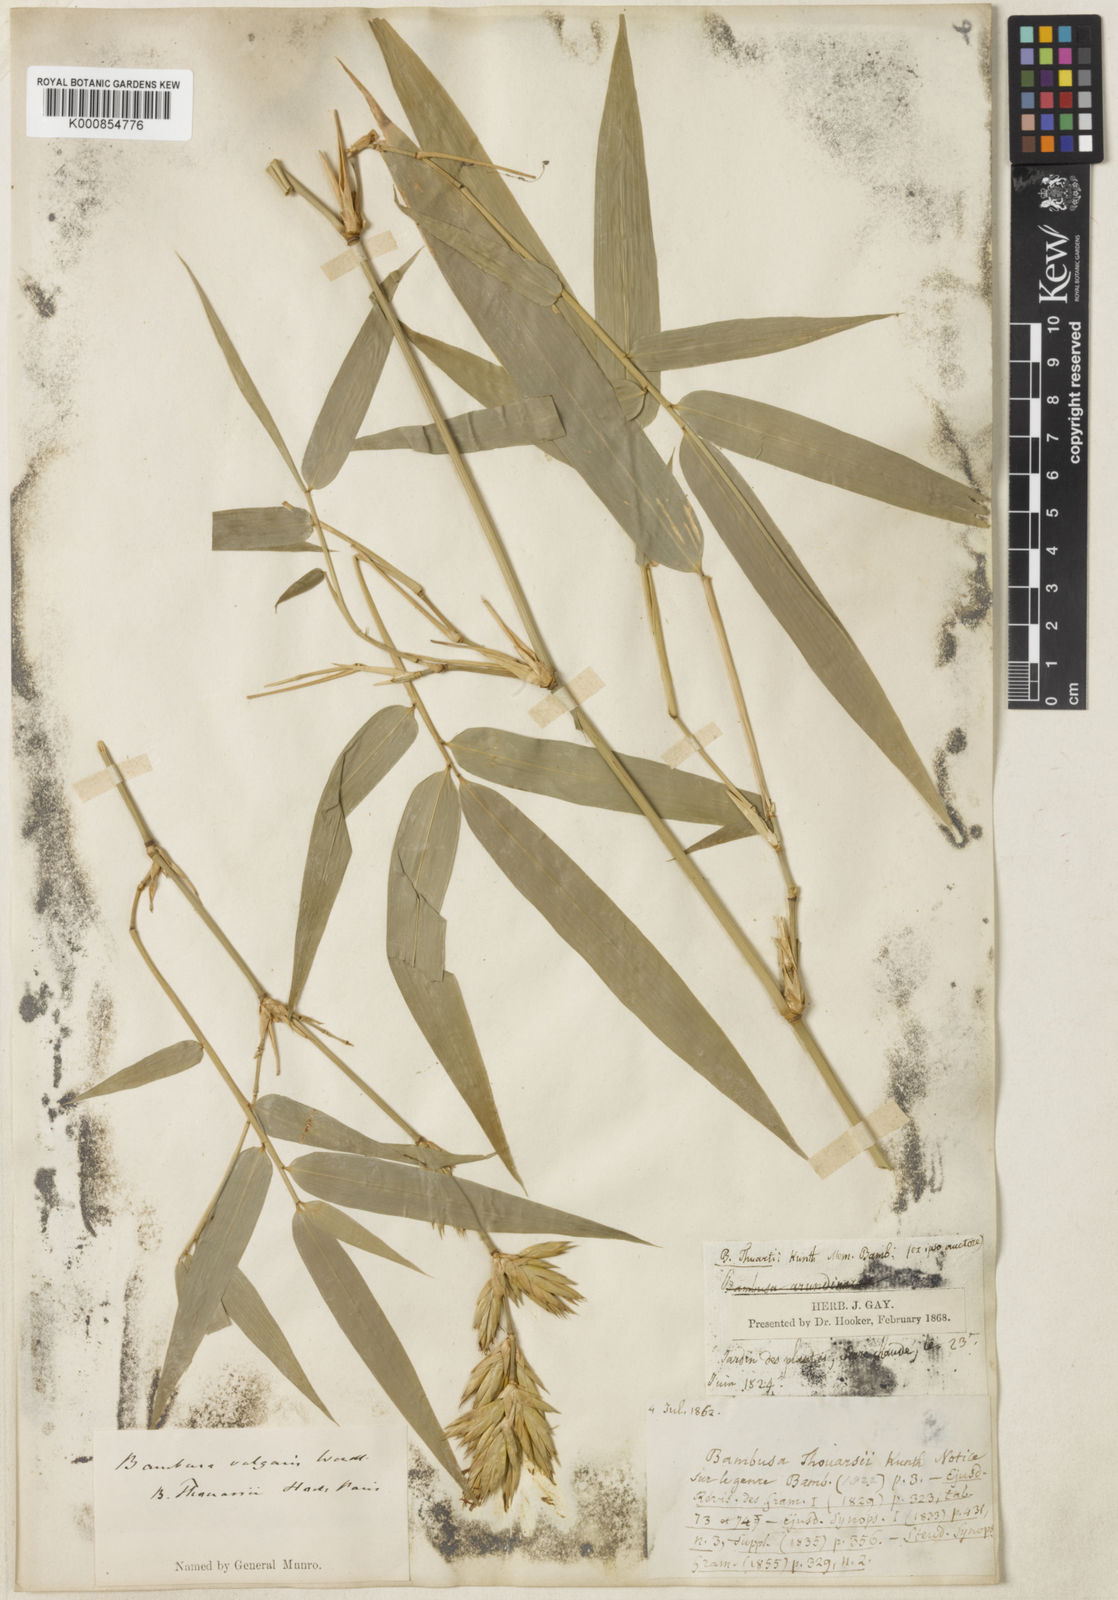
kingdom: Plantae
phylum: Tracheophyta
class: Liliopsida
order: Poales
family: Poaceae
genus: Bambusa
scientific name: Bambusa vulgaris
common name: Common bamboo
